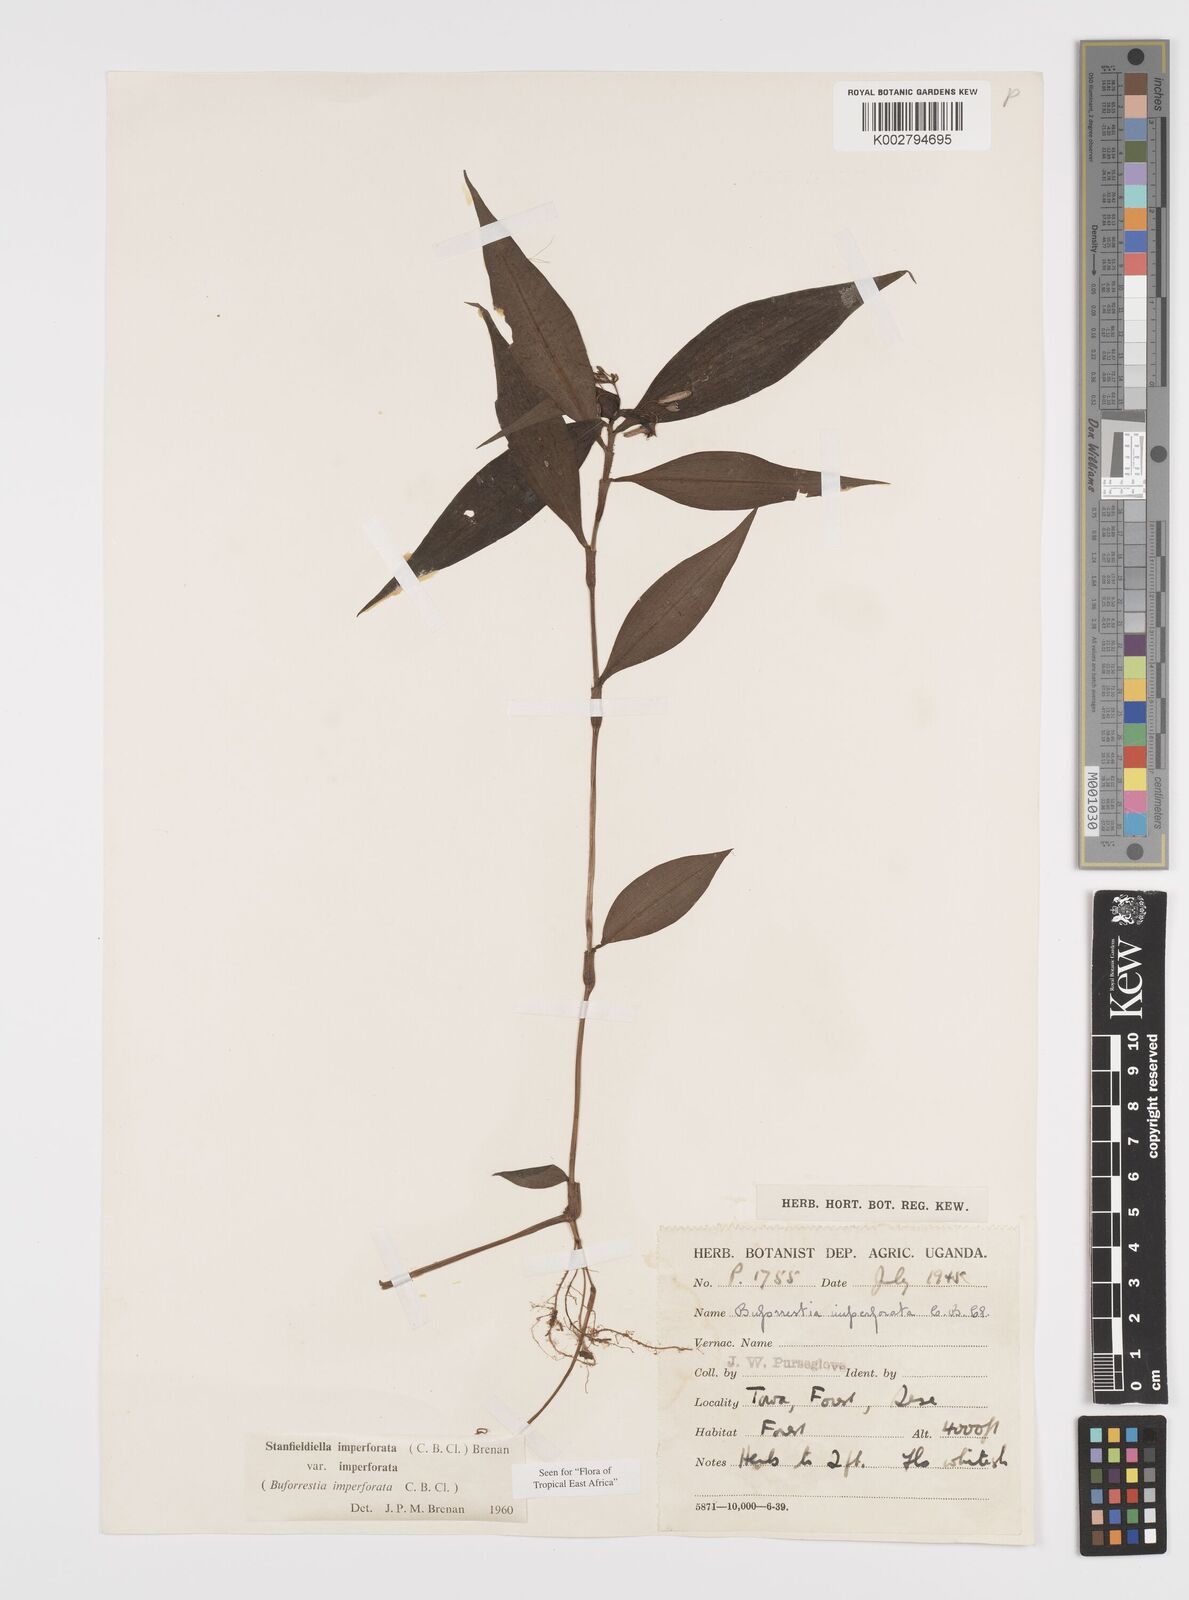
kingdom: Plantae
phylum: Tracheophyta
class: Liliopsida
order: Commelinales
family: Commelinaceae
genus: Stanfieldiella
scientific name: Stanfieldiella imperforata
